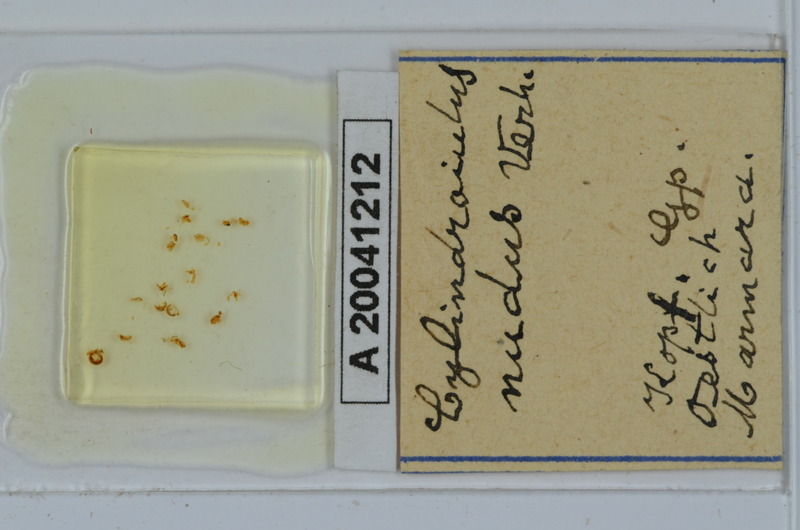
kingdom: Animalia
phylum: Arthropoda
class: Diplopoda
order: Julida
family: Julidae
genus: Cylindroiulus
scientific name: Cylindroiulus
